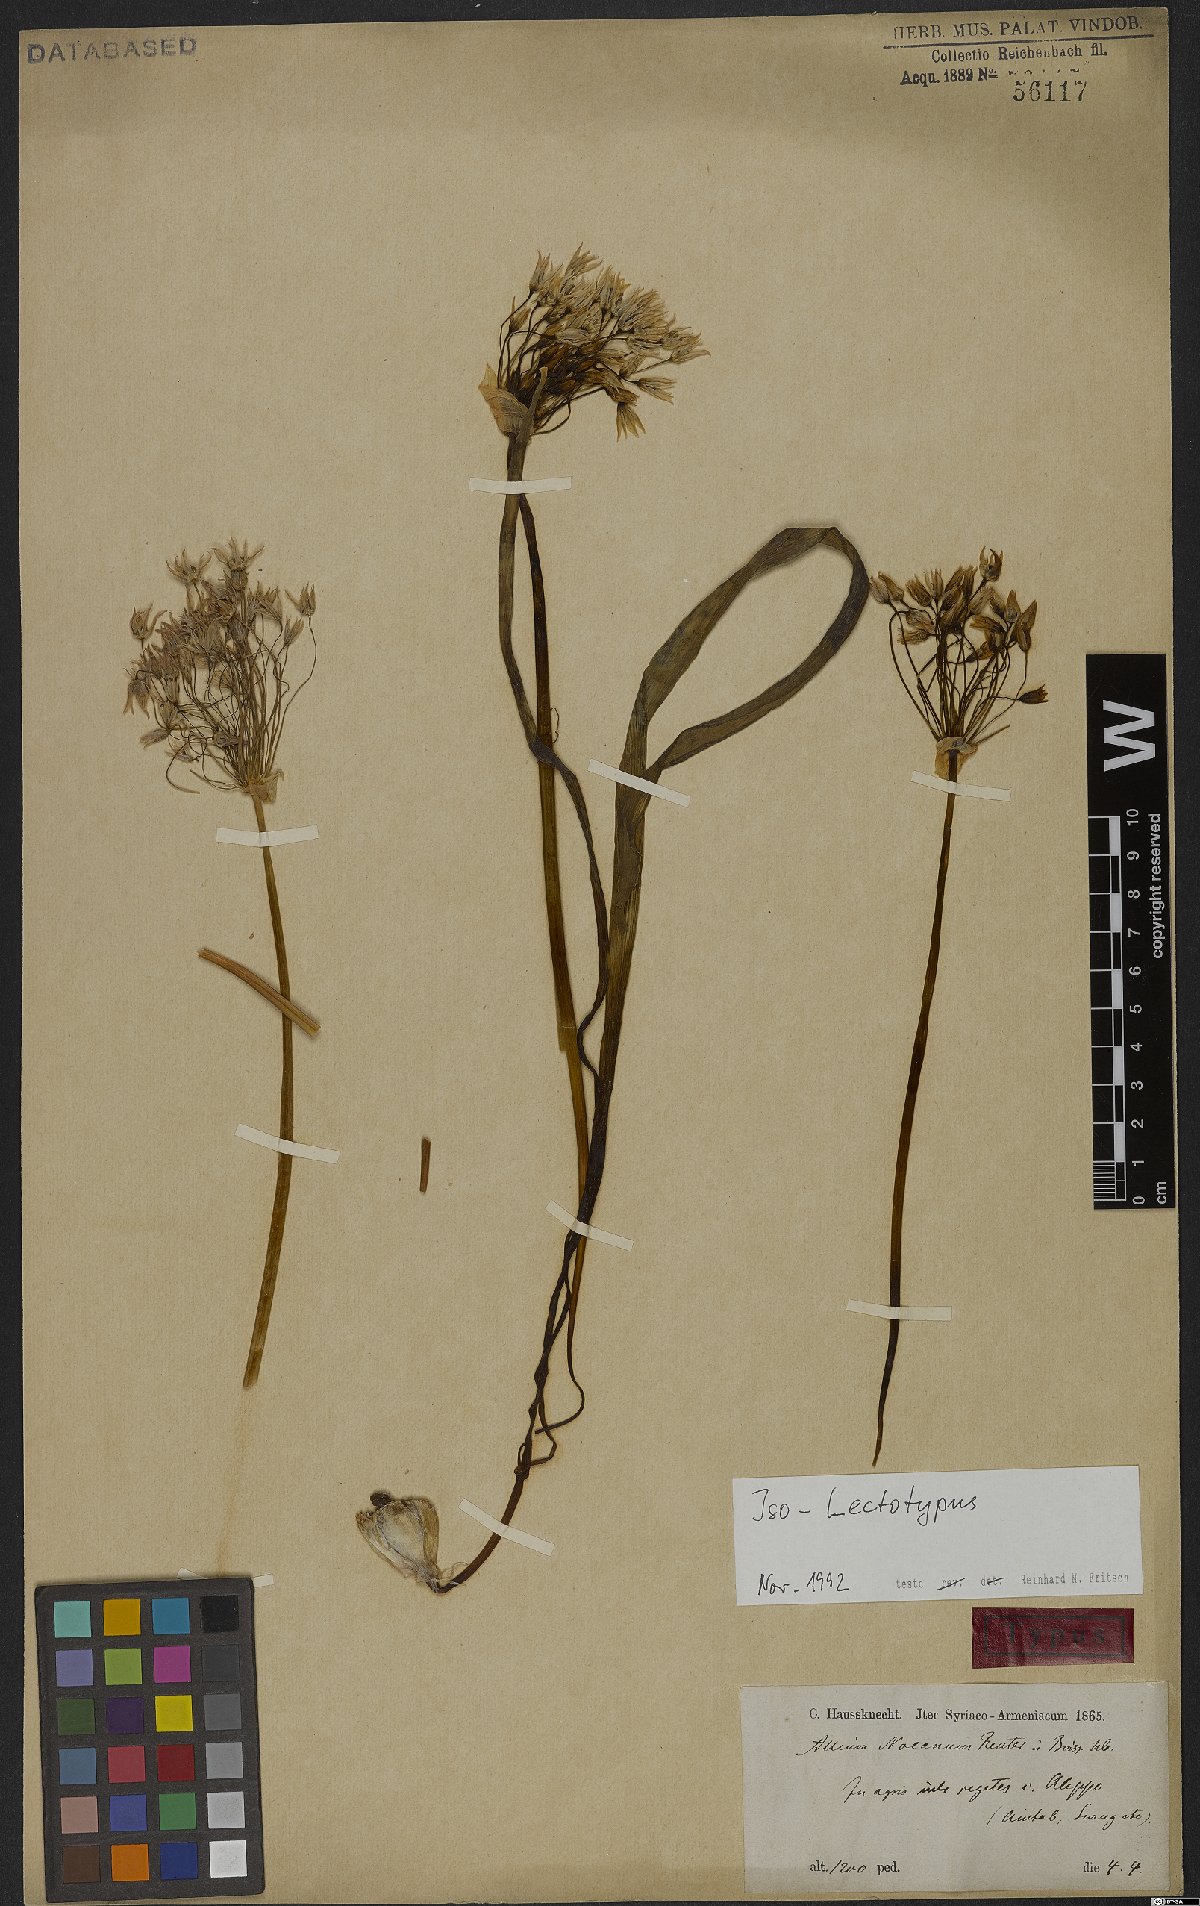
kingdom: Plantae
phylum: Tracheophyta
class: Liliopsida
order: Asparagales
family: Amaryllidaceae
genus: Allium
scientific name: Allium noeanum
